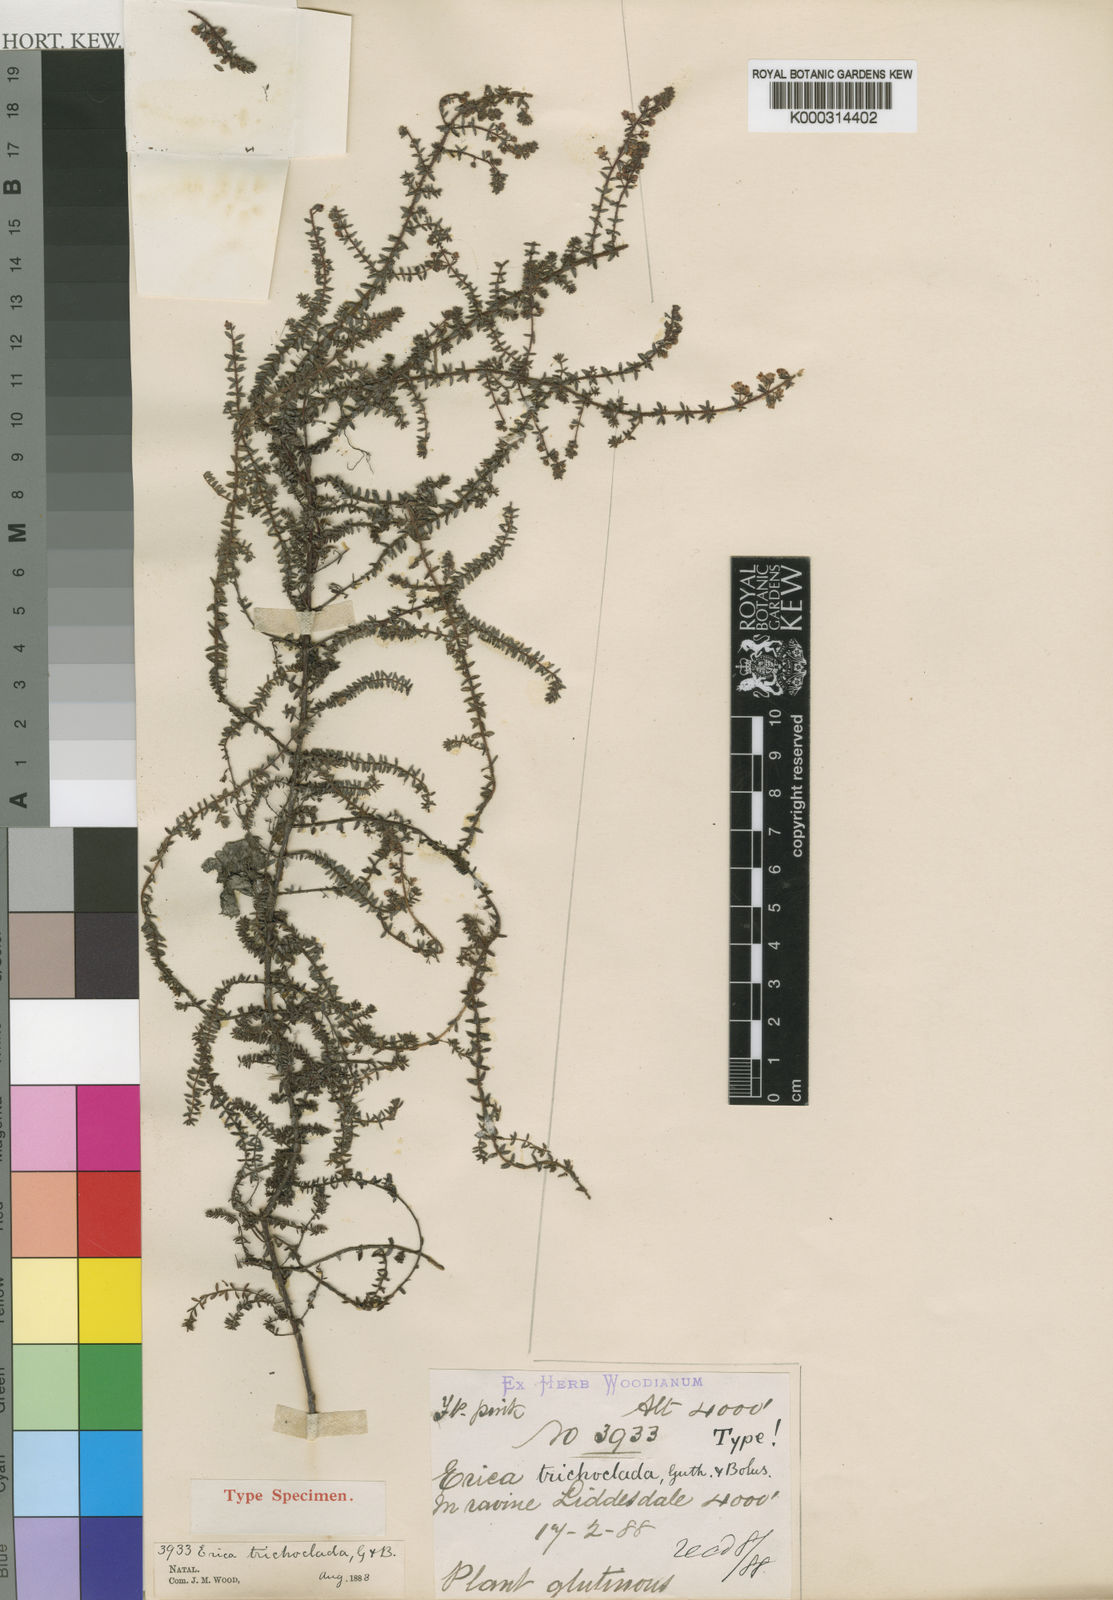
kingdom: Plantae
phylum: Tracheophyta
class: Magnoliopsida
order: Ericales
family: Ericaceae
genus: Erica
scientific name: Erica trichoclada
